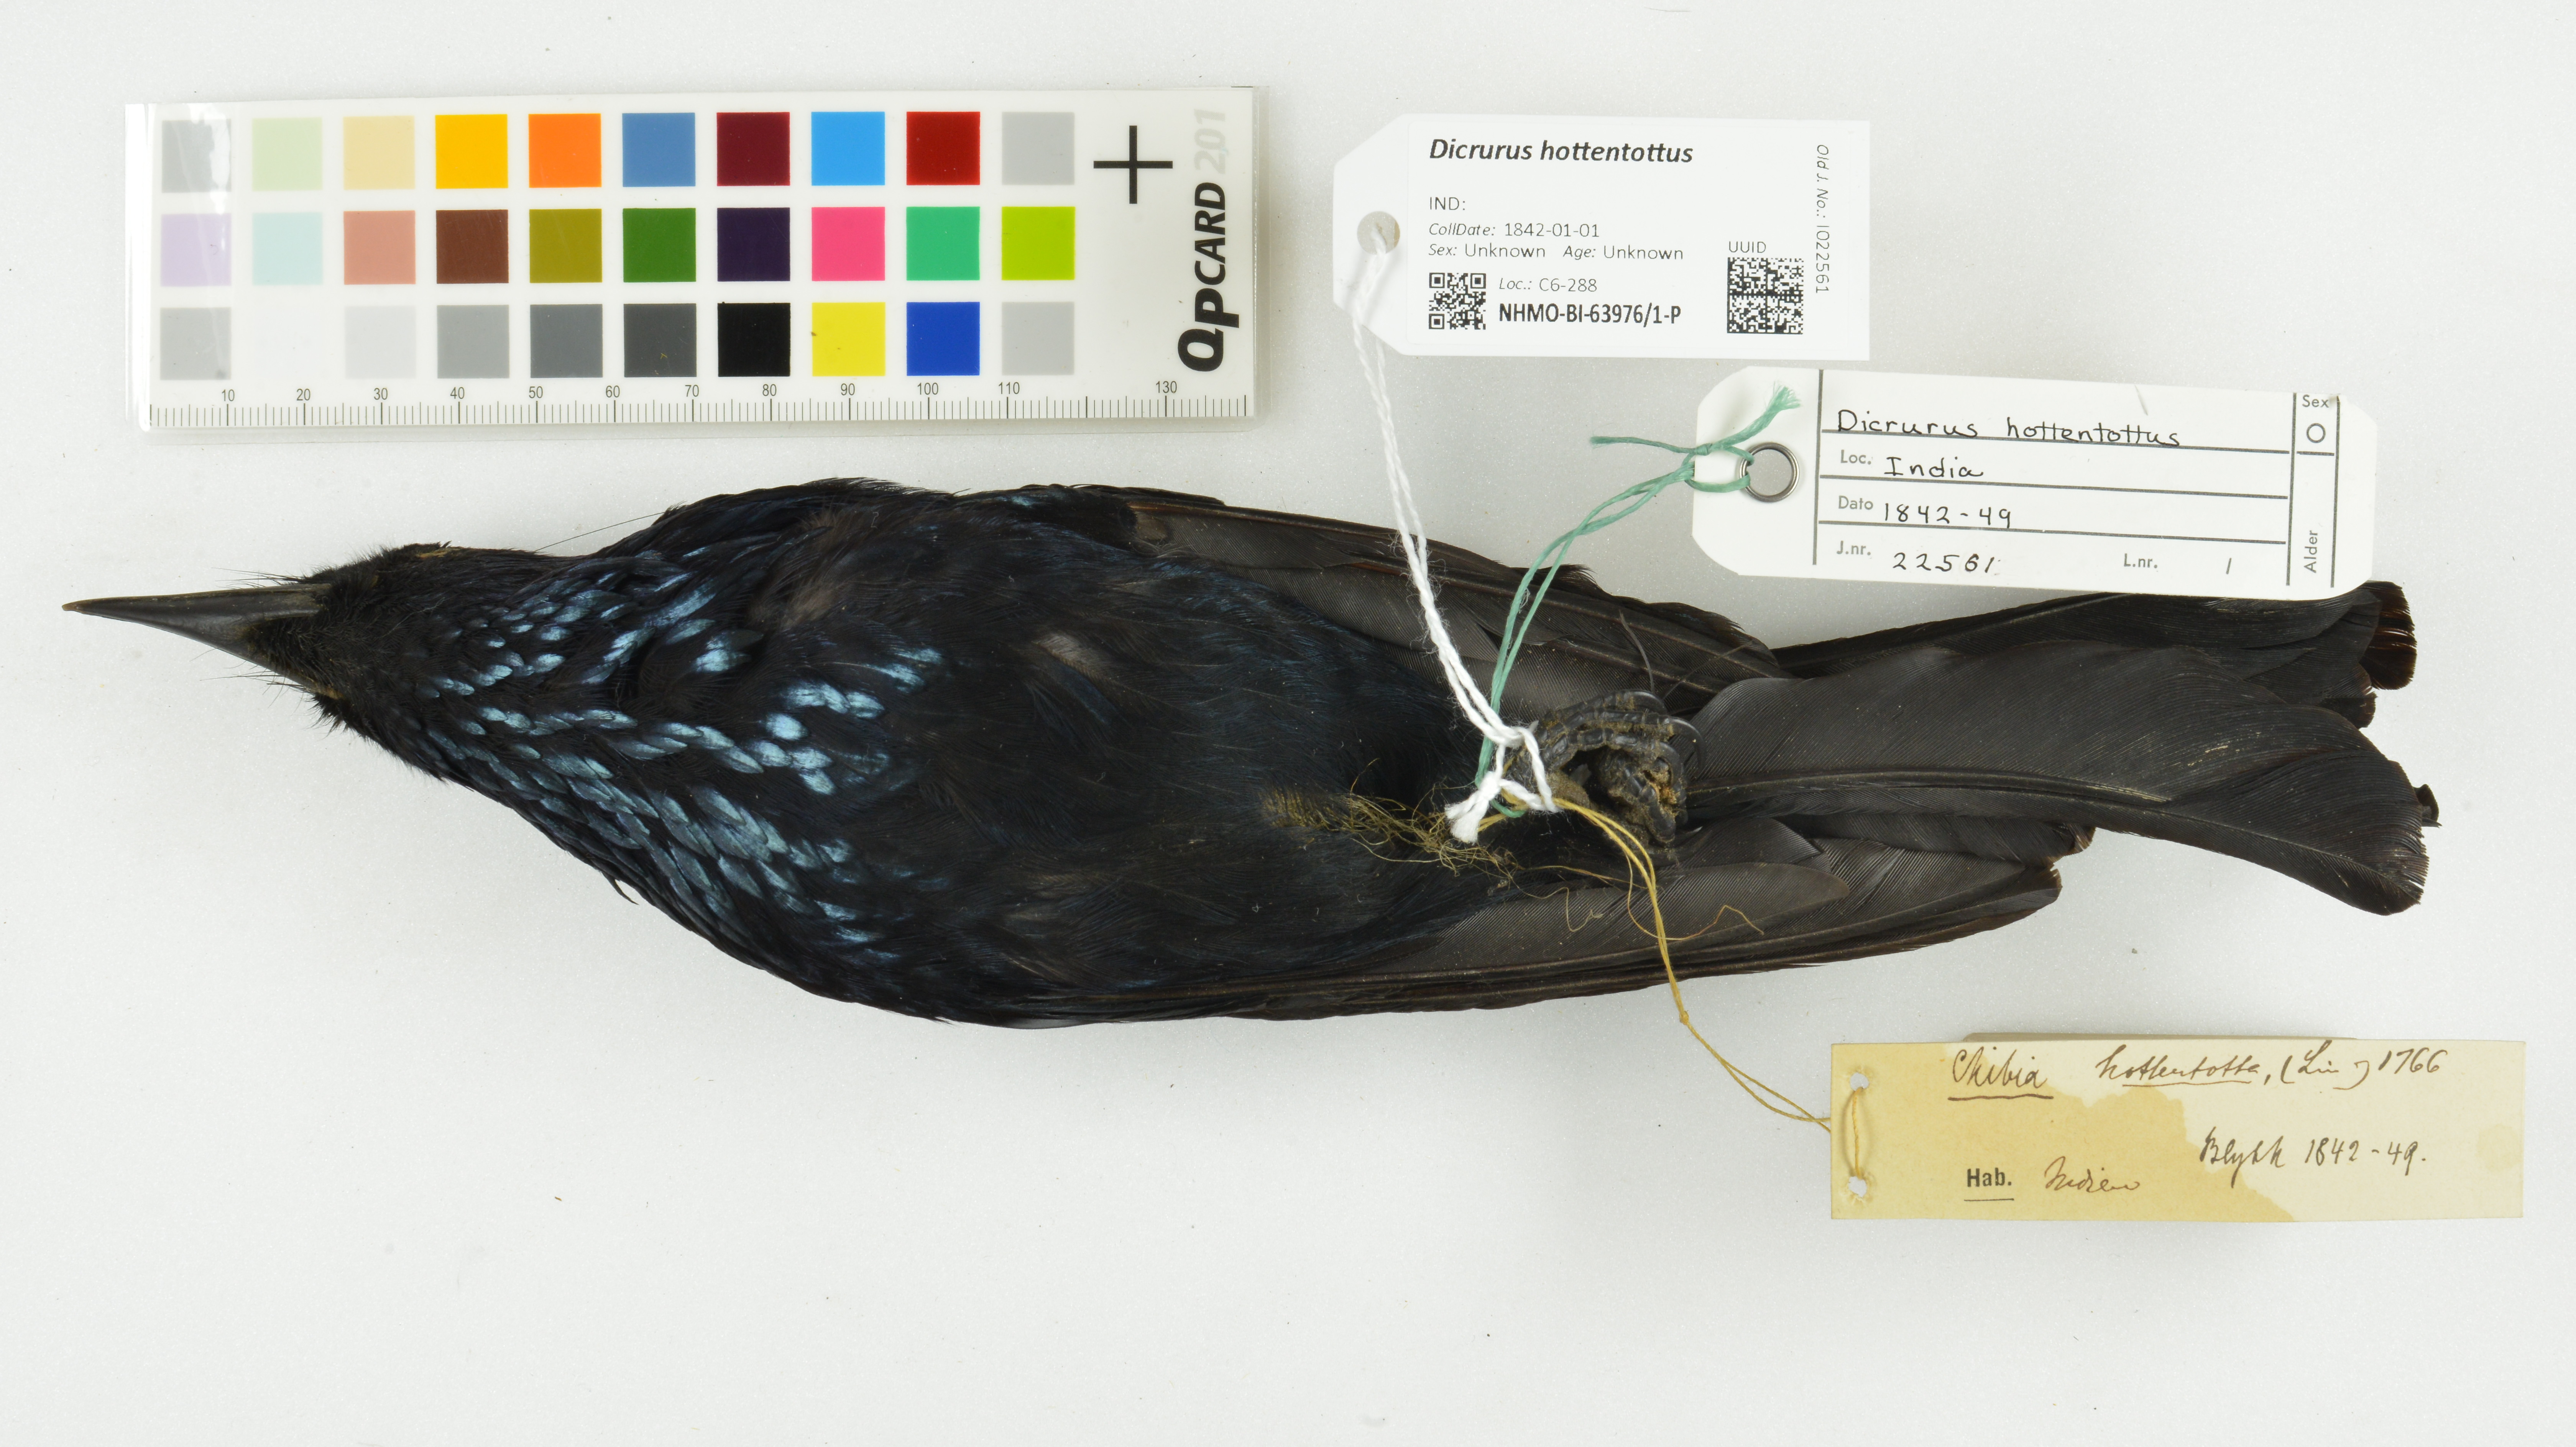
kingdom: Animalia
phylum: Chordata
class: Aves
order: Passeriformes
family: Dicruridae
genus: Dicrurus
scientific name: Dicrurus hottentottus
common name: Hair-crested drongo
